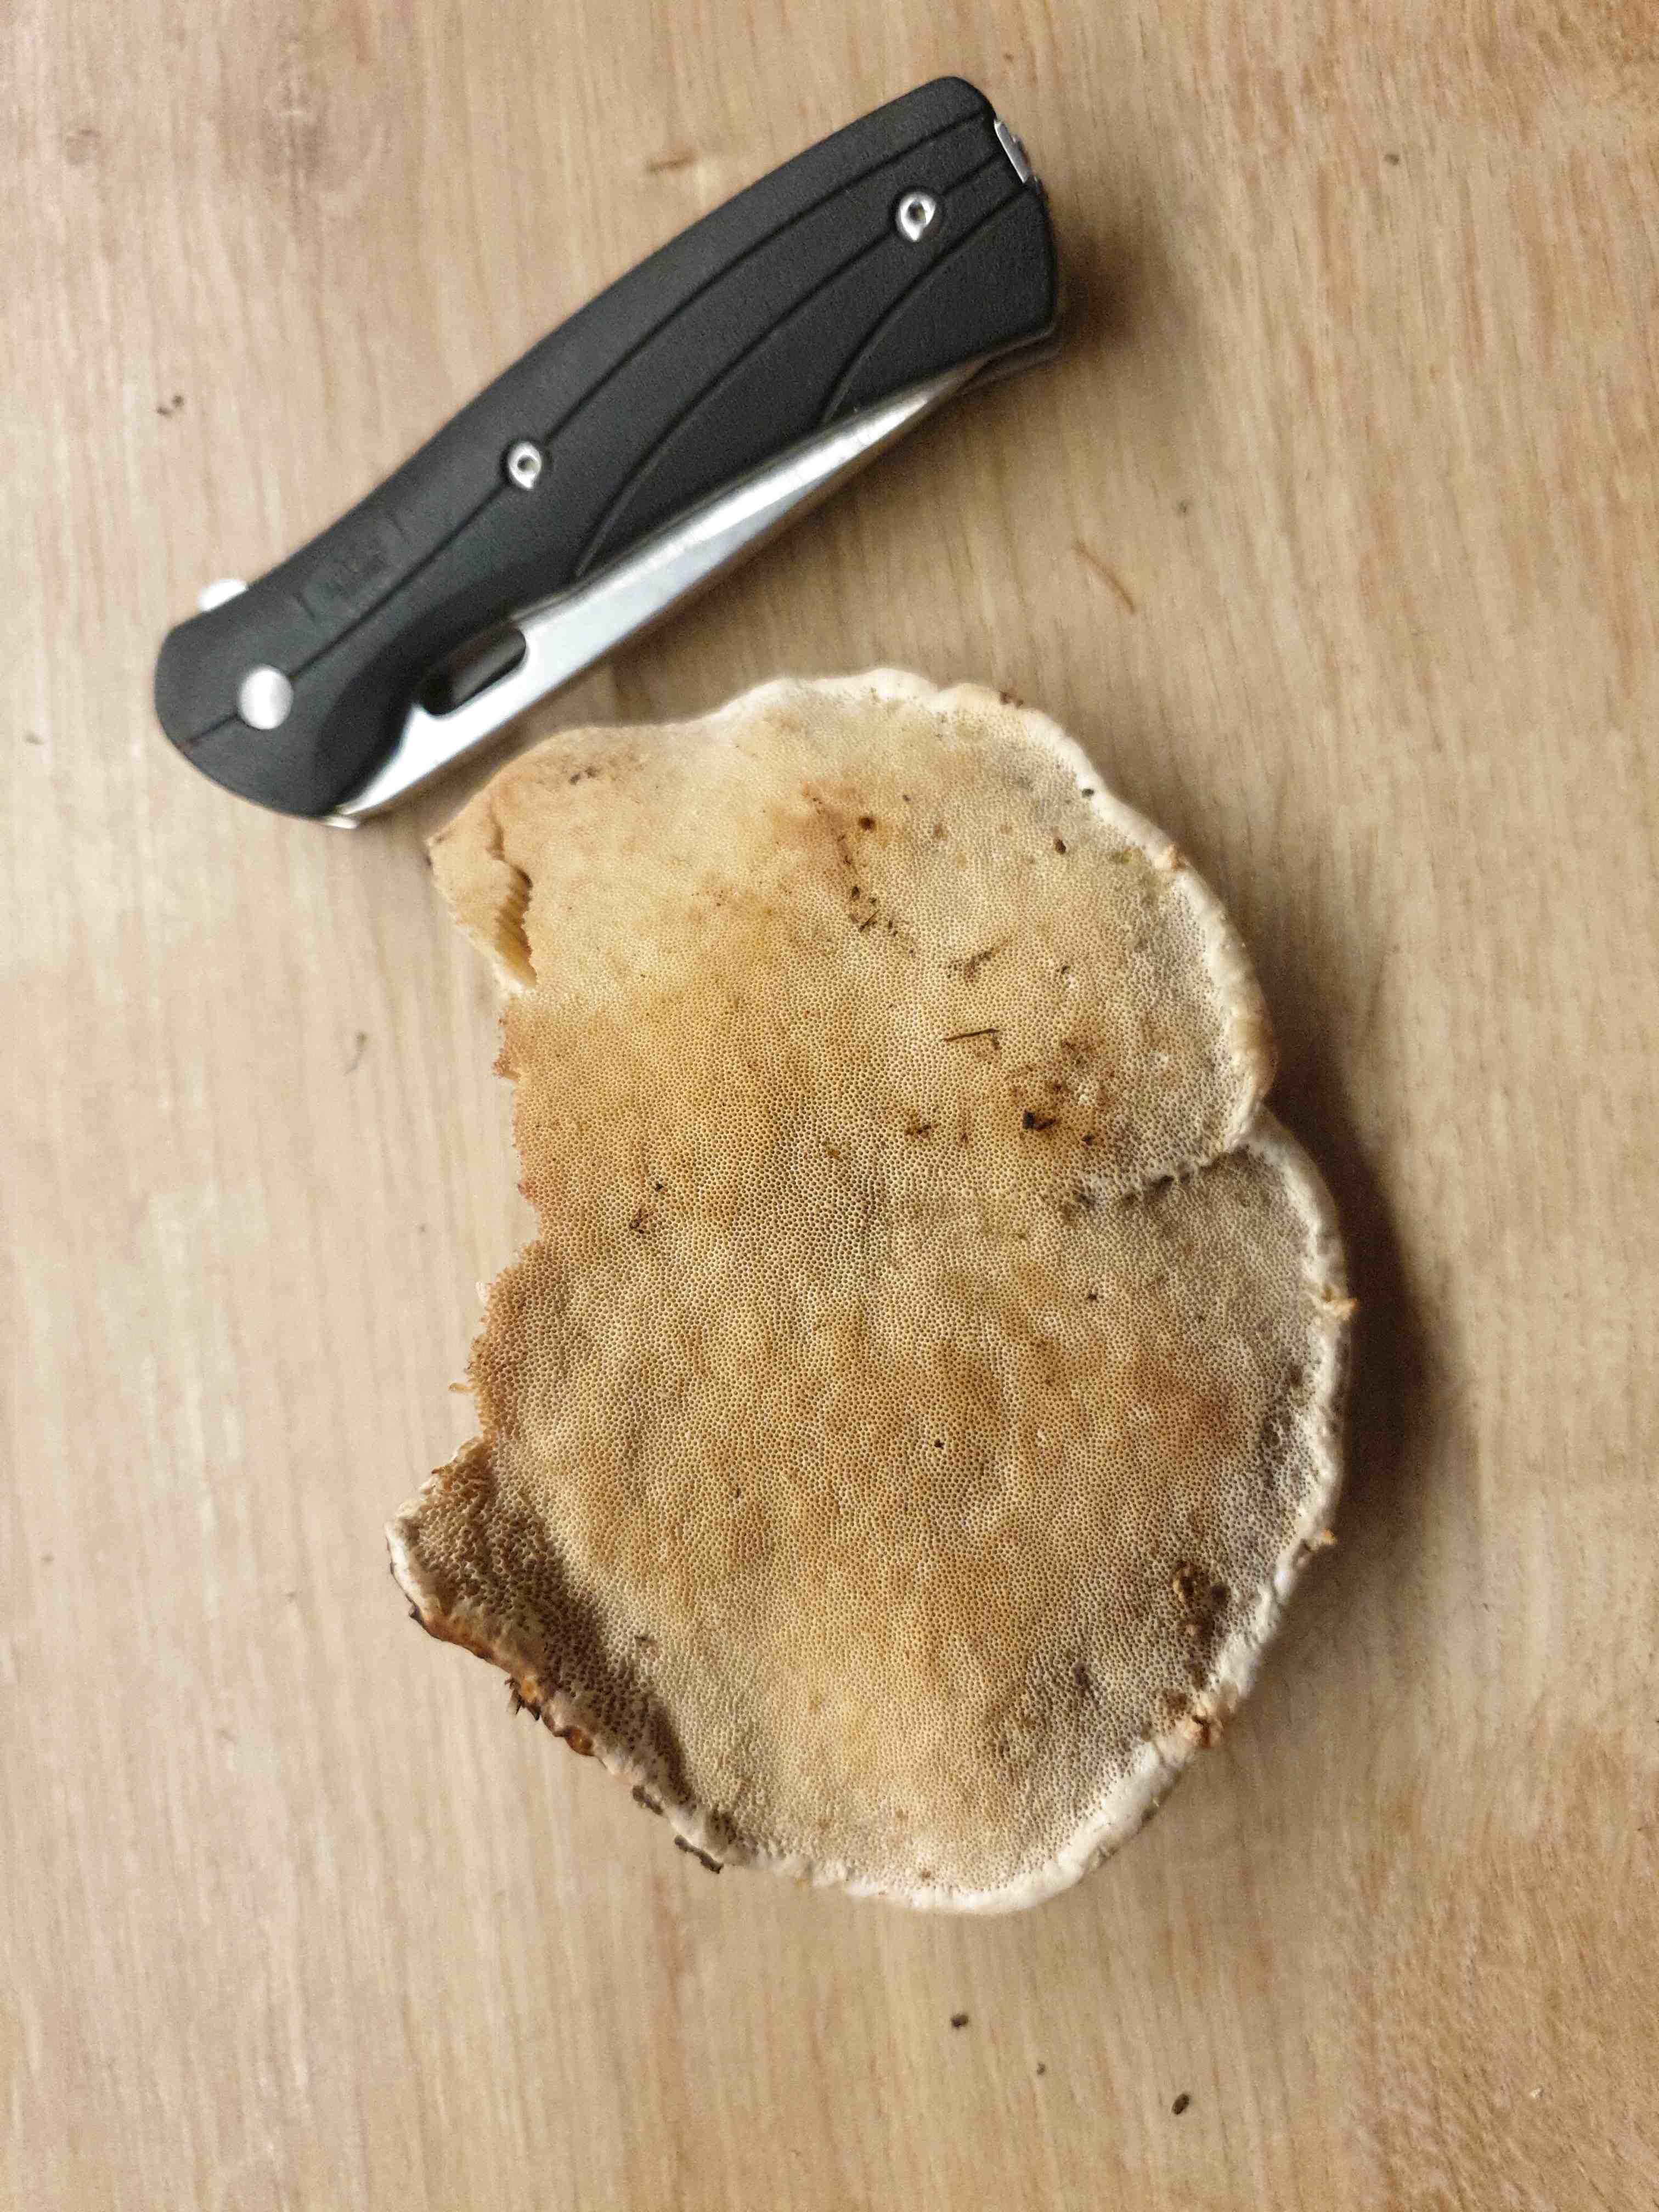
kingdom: Fungi
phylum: Basidiomycota
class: Agaricomycetes
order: Polyporales
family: Fomitopsidaceae
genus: Fomitopsis
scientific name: Fomitopsis pinicola
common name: randbæltet hovporesvamp
